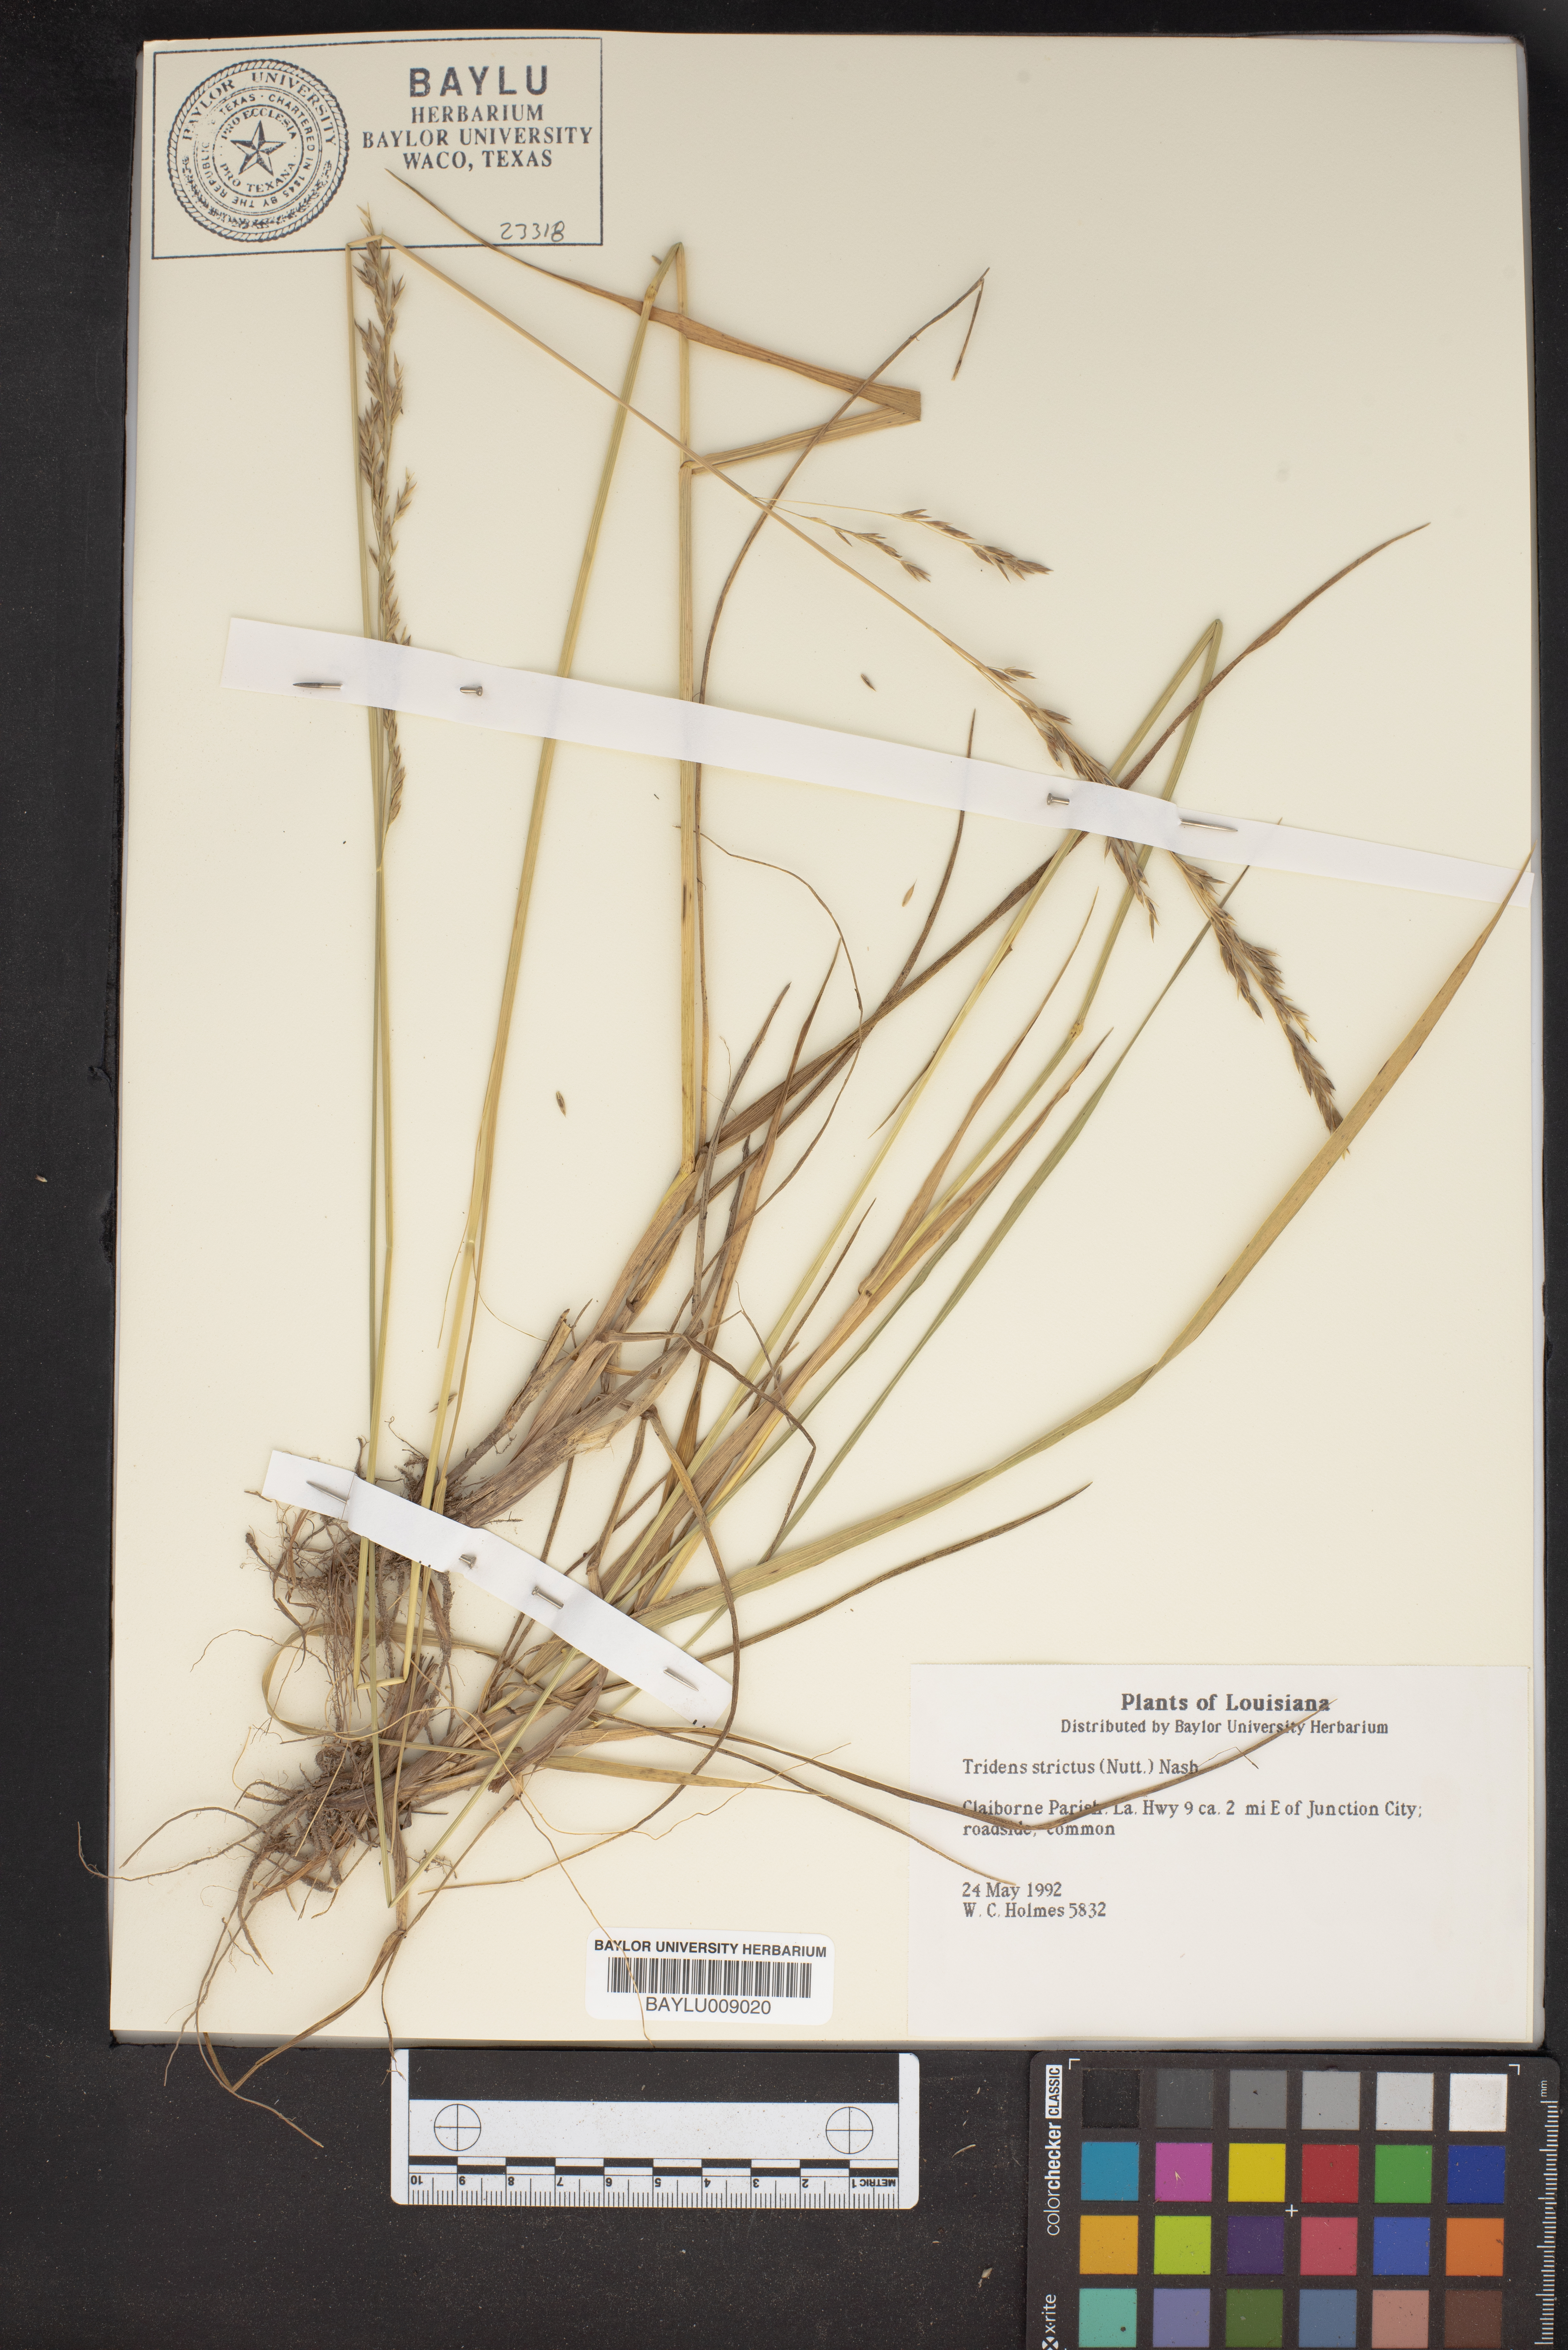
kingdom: Plantae
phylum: Tracheophyta
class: Liliopsida
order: Poales
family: Poaceae
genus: Tridens
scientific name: Tridens strictus
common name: Long-spike tridens
